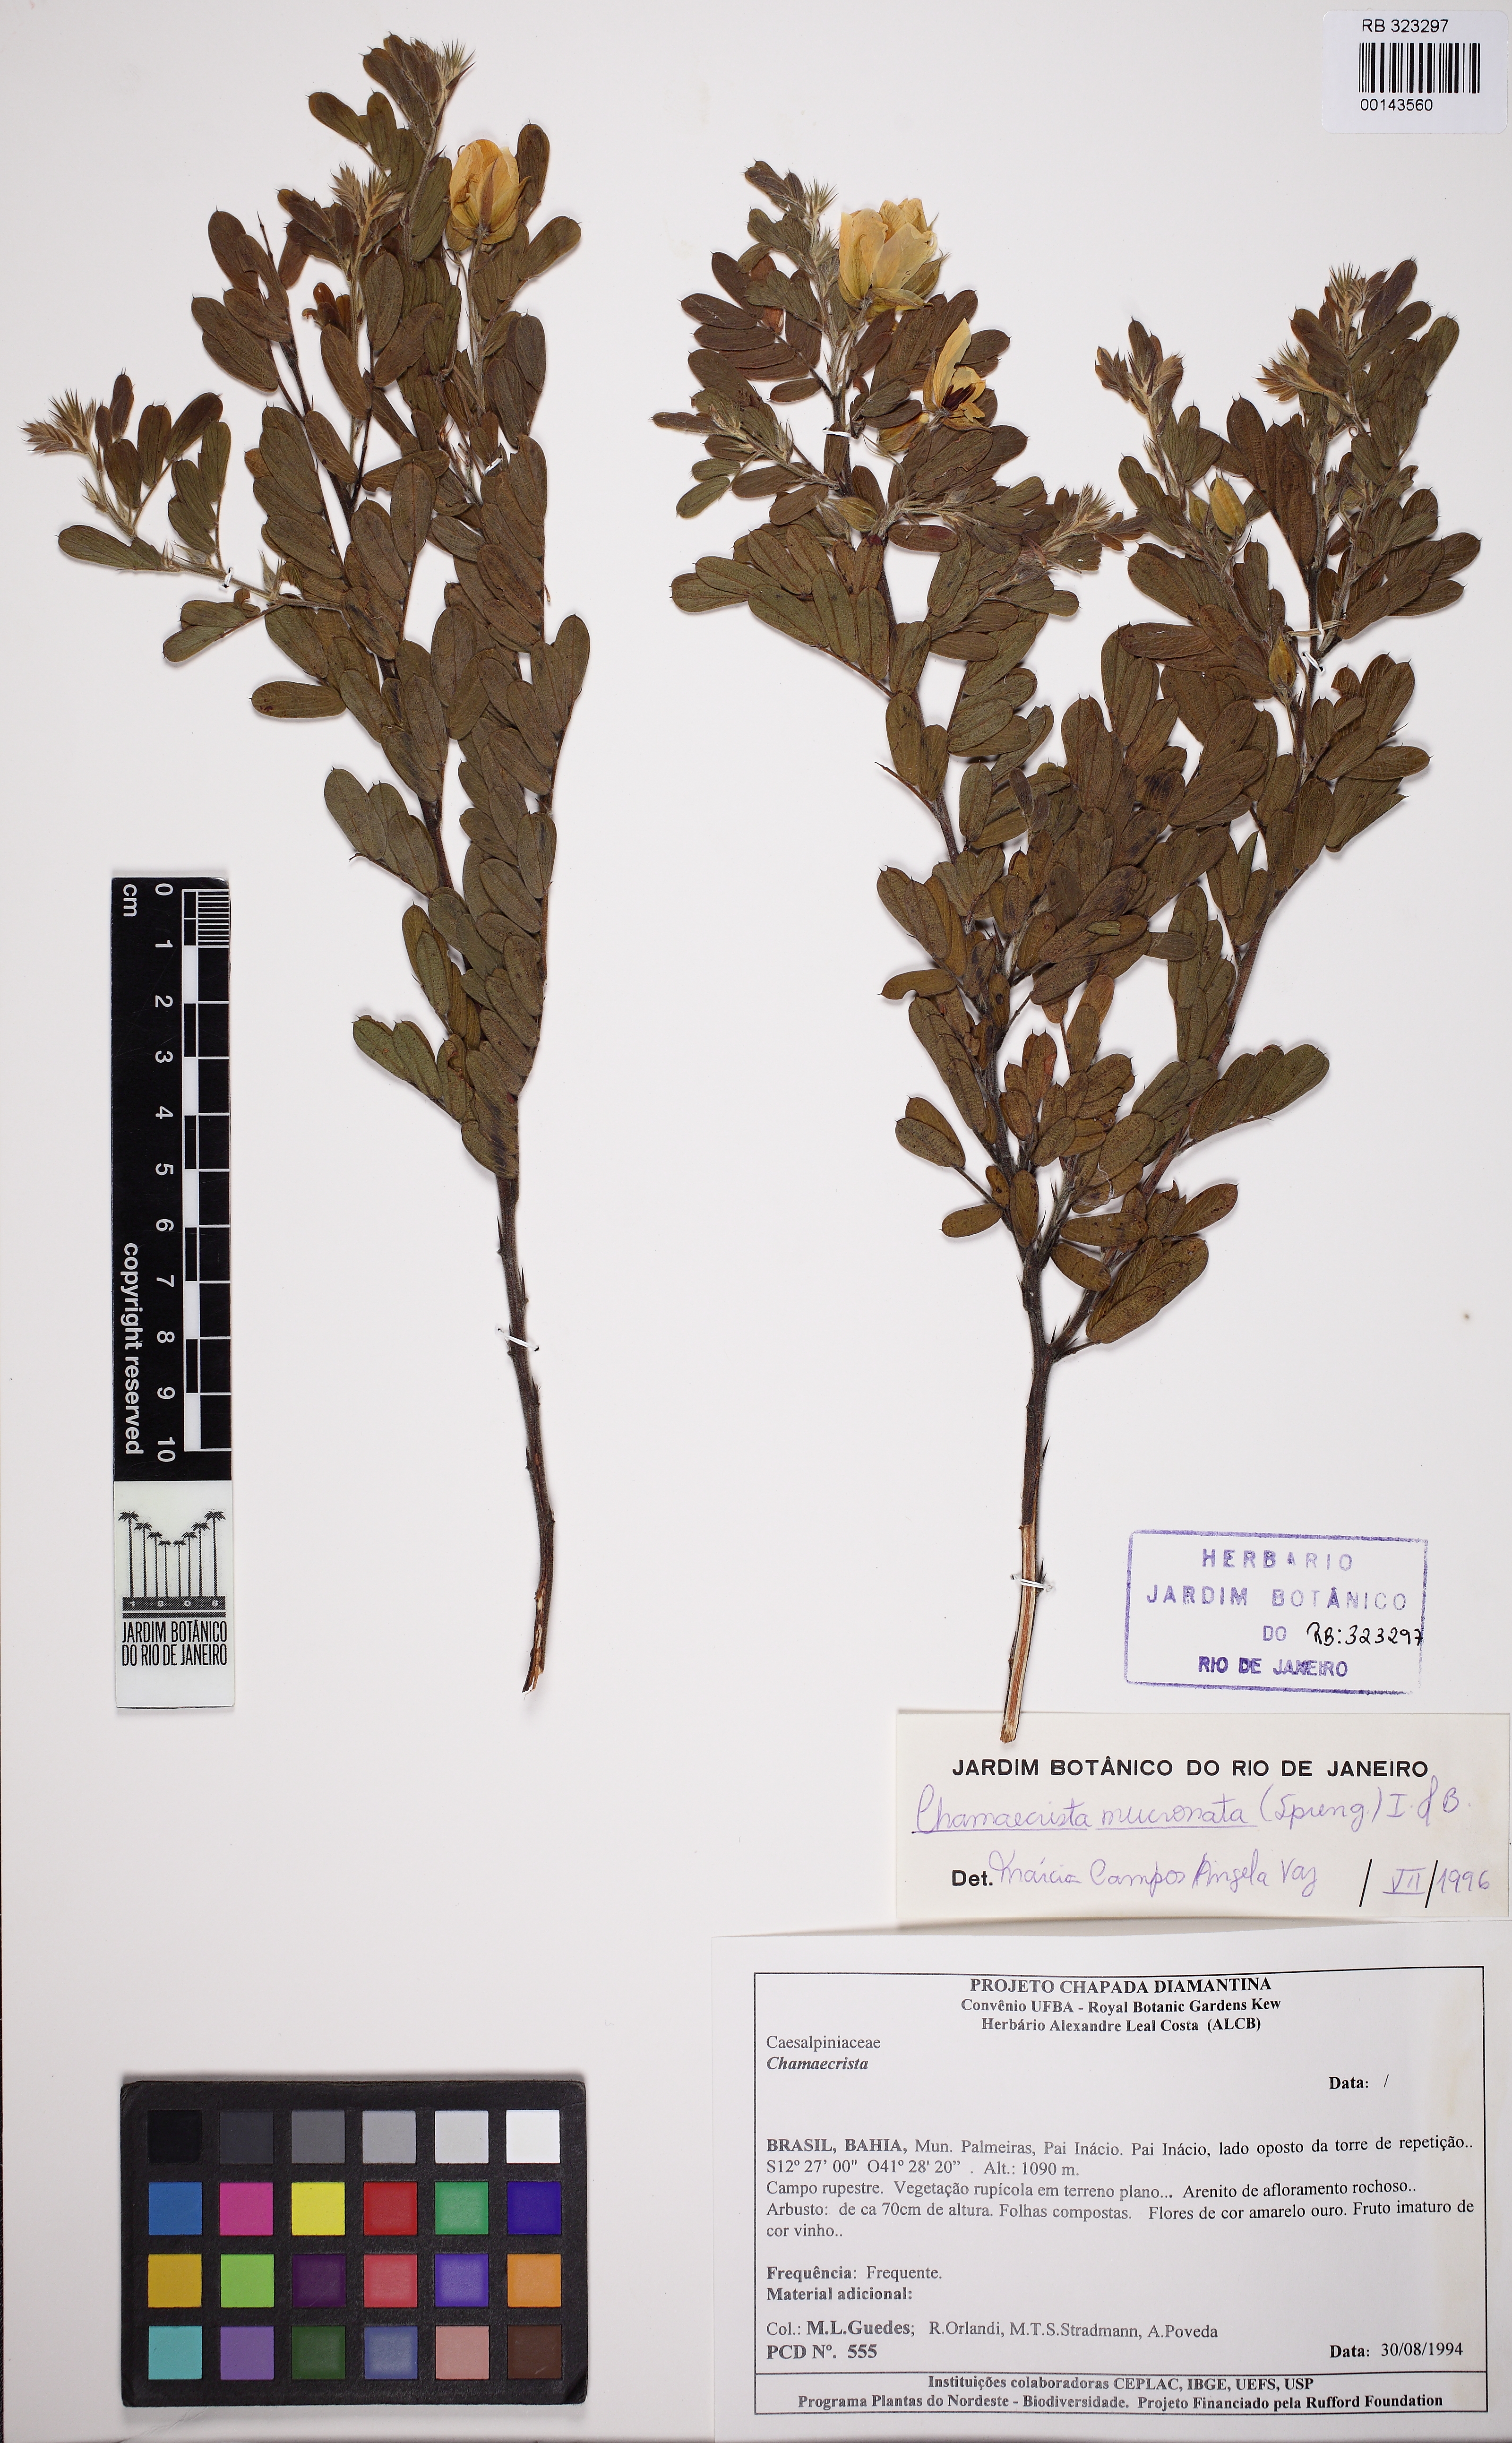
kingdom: Plantae
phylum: Tracheophyta
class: Magnoliopsida
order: Fabales
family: Fabaceae
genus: Chamaecrista
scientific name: Chamaecrista mucronata
